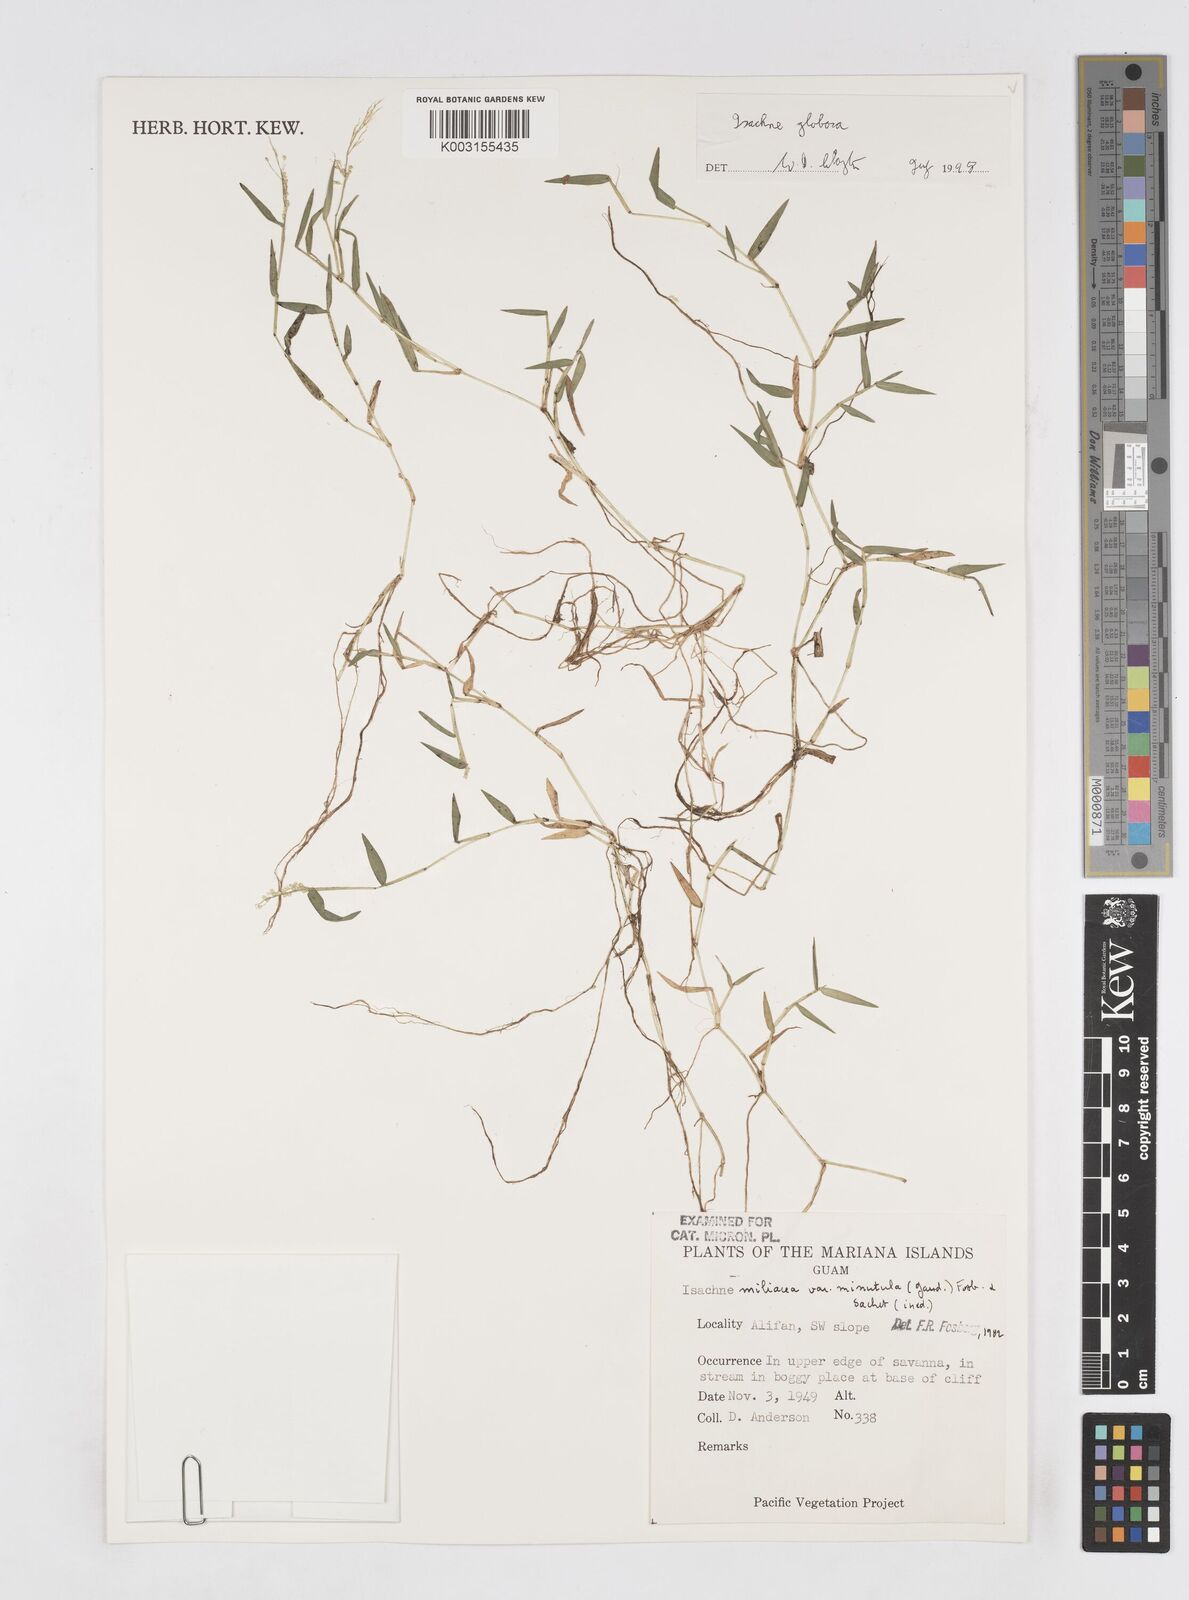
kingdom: Plantae
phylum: Tracheophyta
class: Liliopsida
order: Poales
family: Poaceae
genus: Isachne
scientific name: Isachne globosa
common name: Swamp millet
